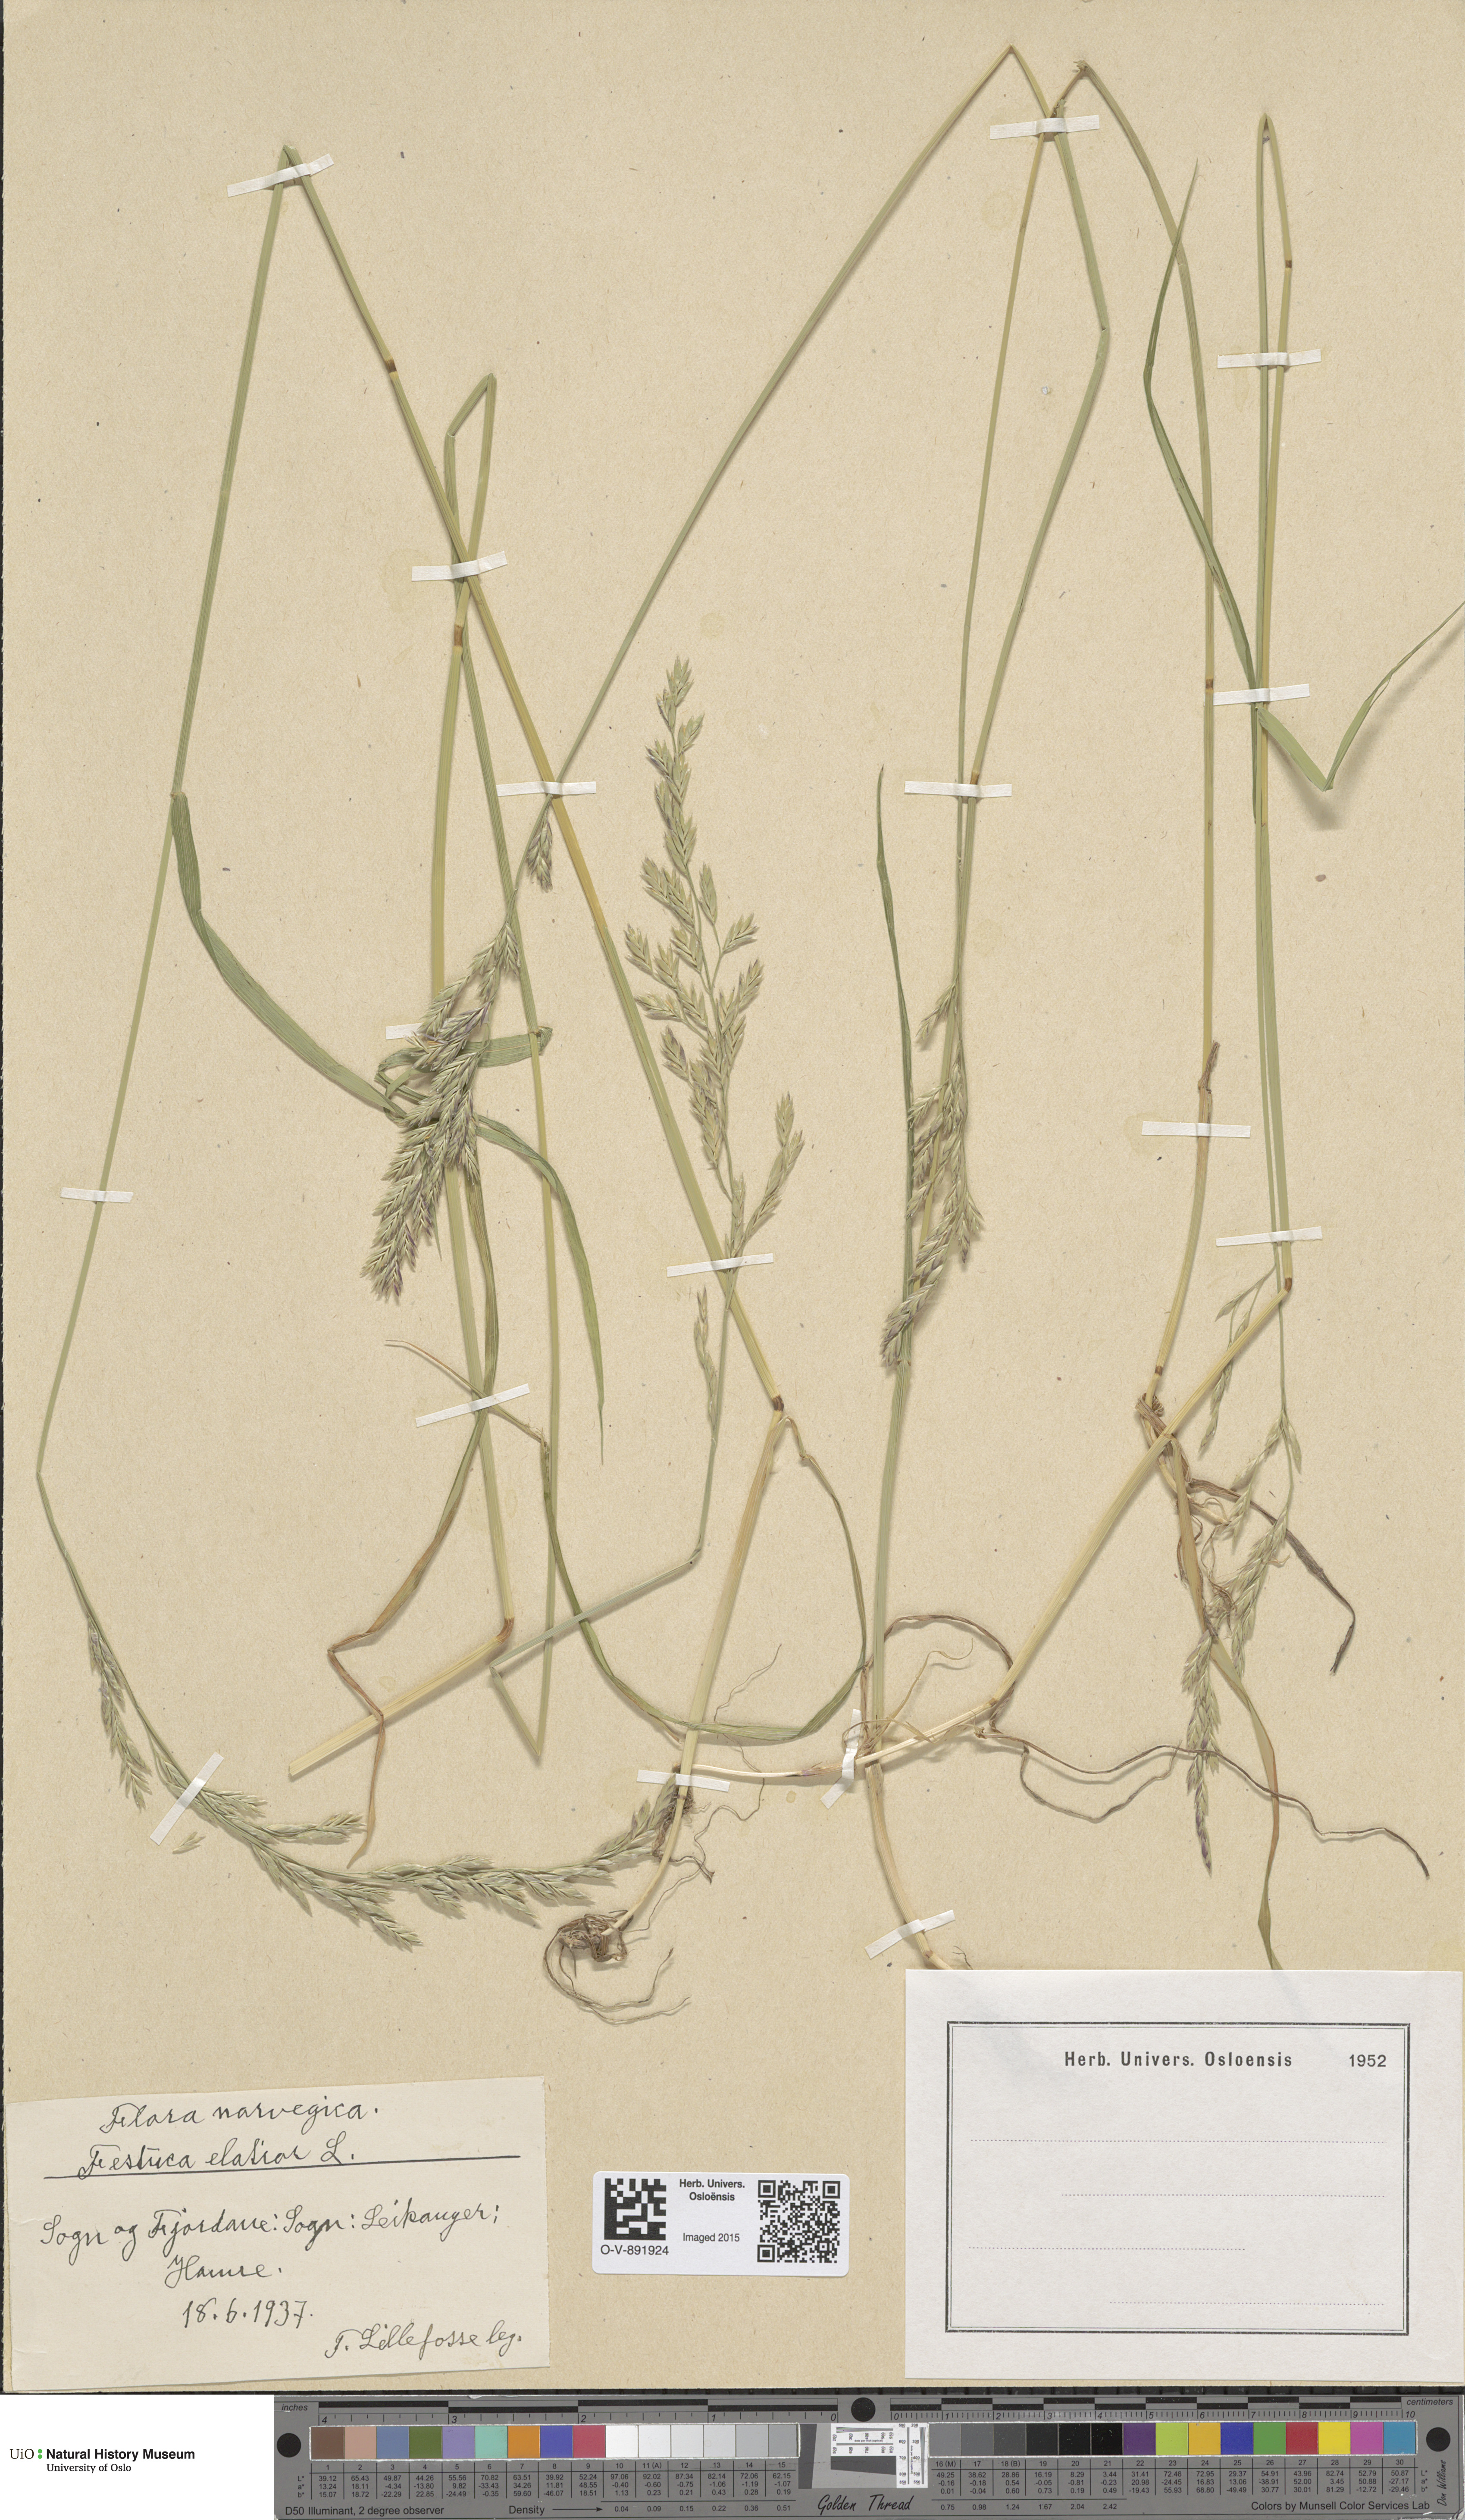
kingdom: Plantae
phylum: Tracheophyta
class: Liliopsida
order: Poales
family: Poaceae
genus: Lolium
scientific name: Lolium arundinaceum
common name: Reed fescue
